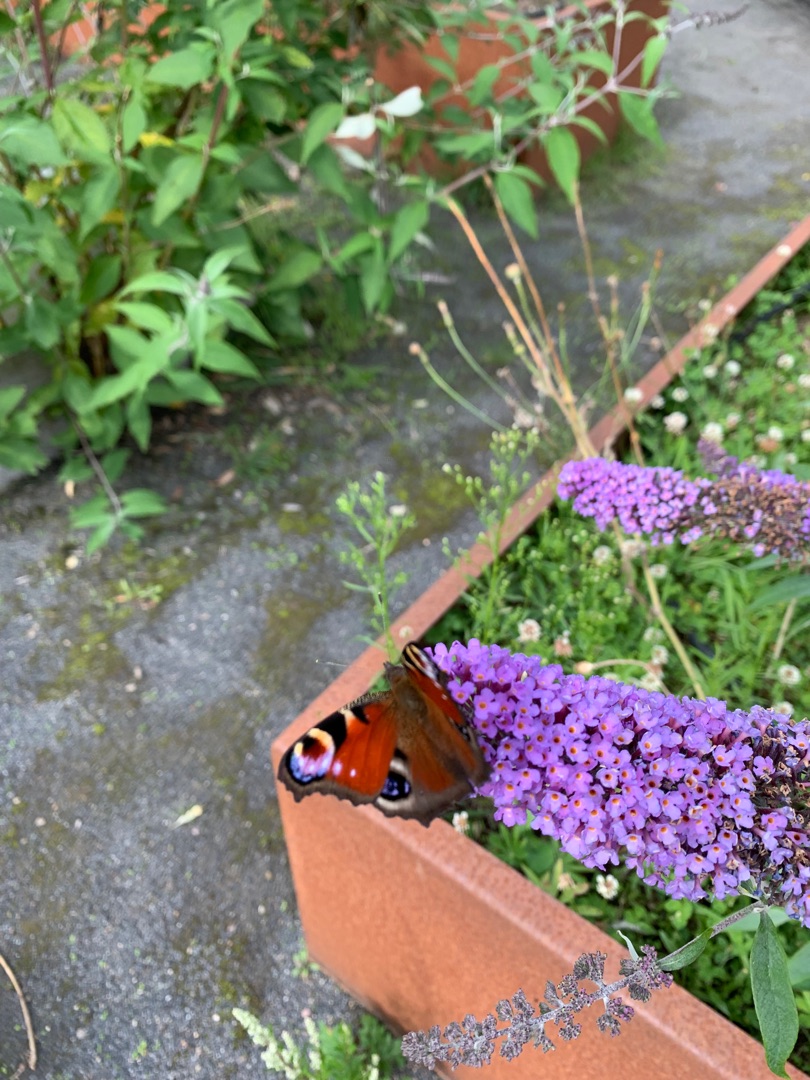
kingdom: Animalia
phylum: Arthropoda
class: Insecta
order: Lepidoptera
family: Nymphalidae
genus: Aglais
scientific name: Aglais io
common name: Dagpåfugleøje
